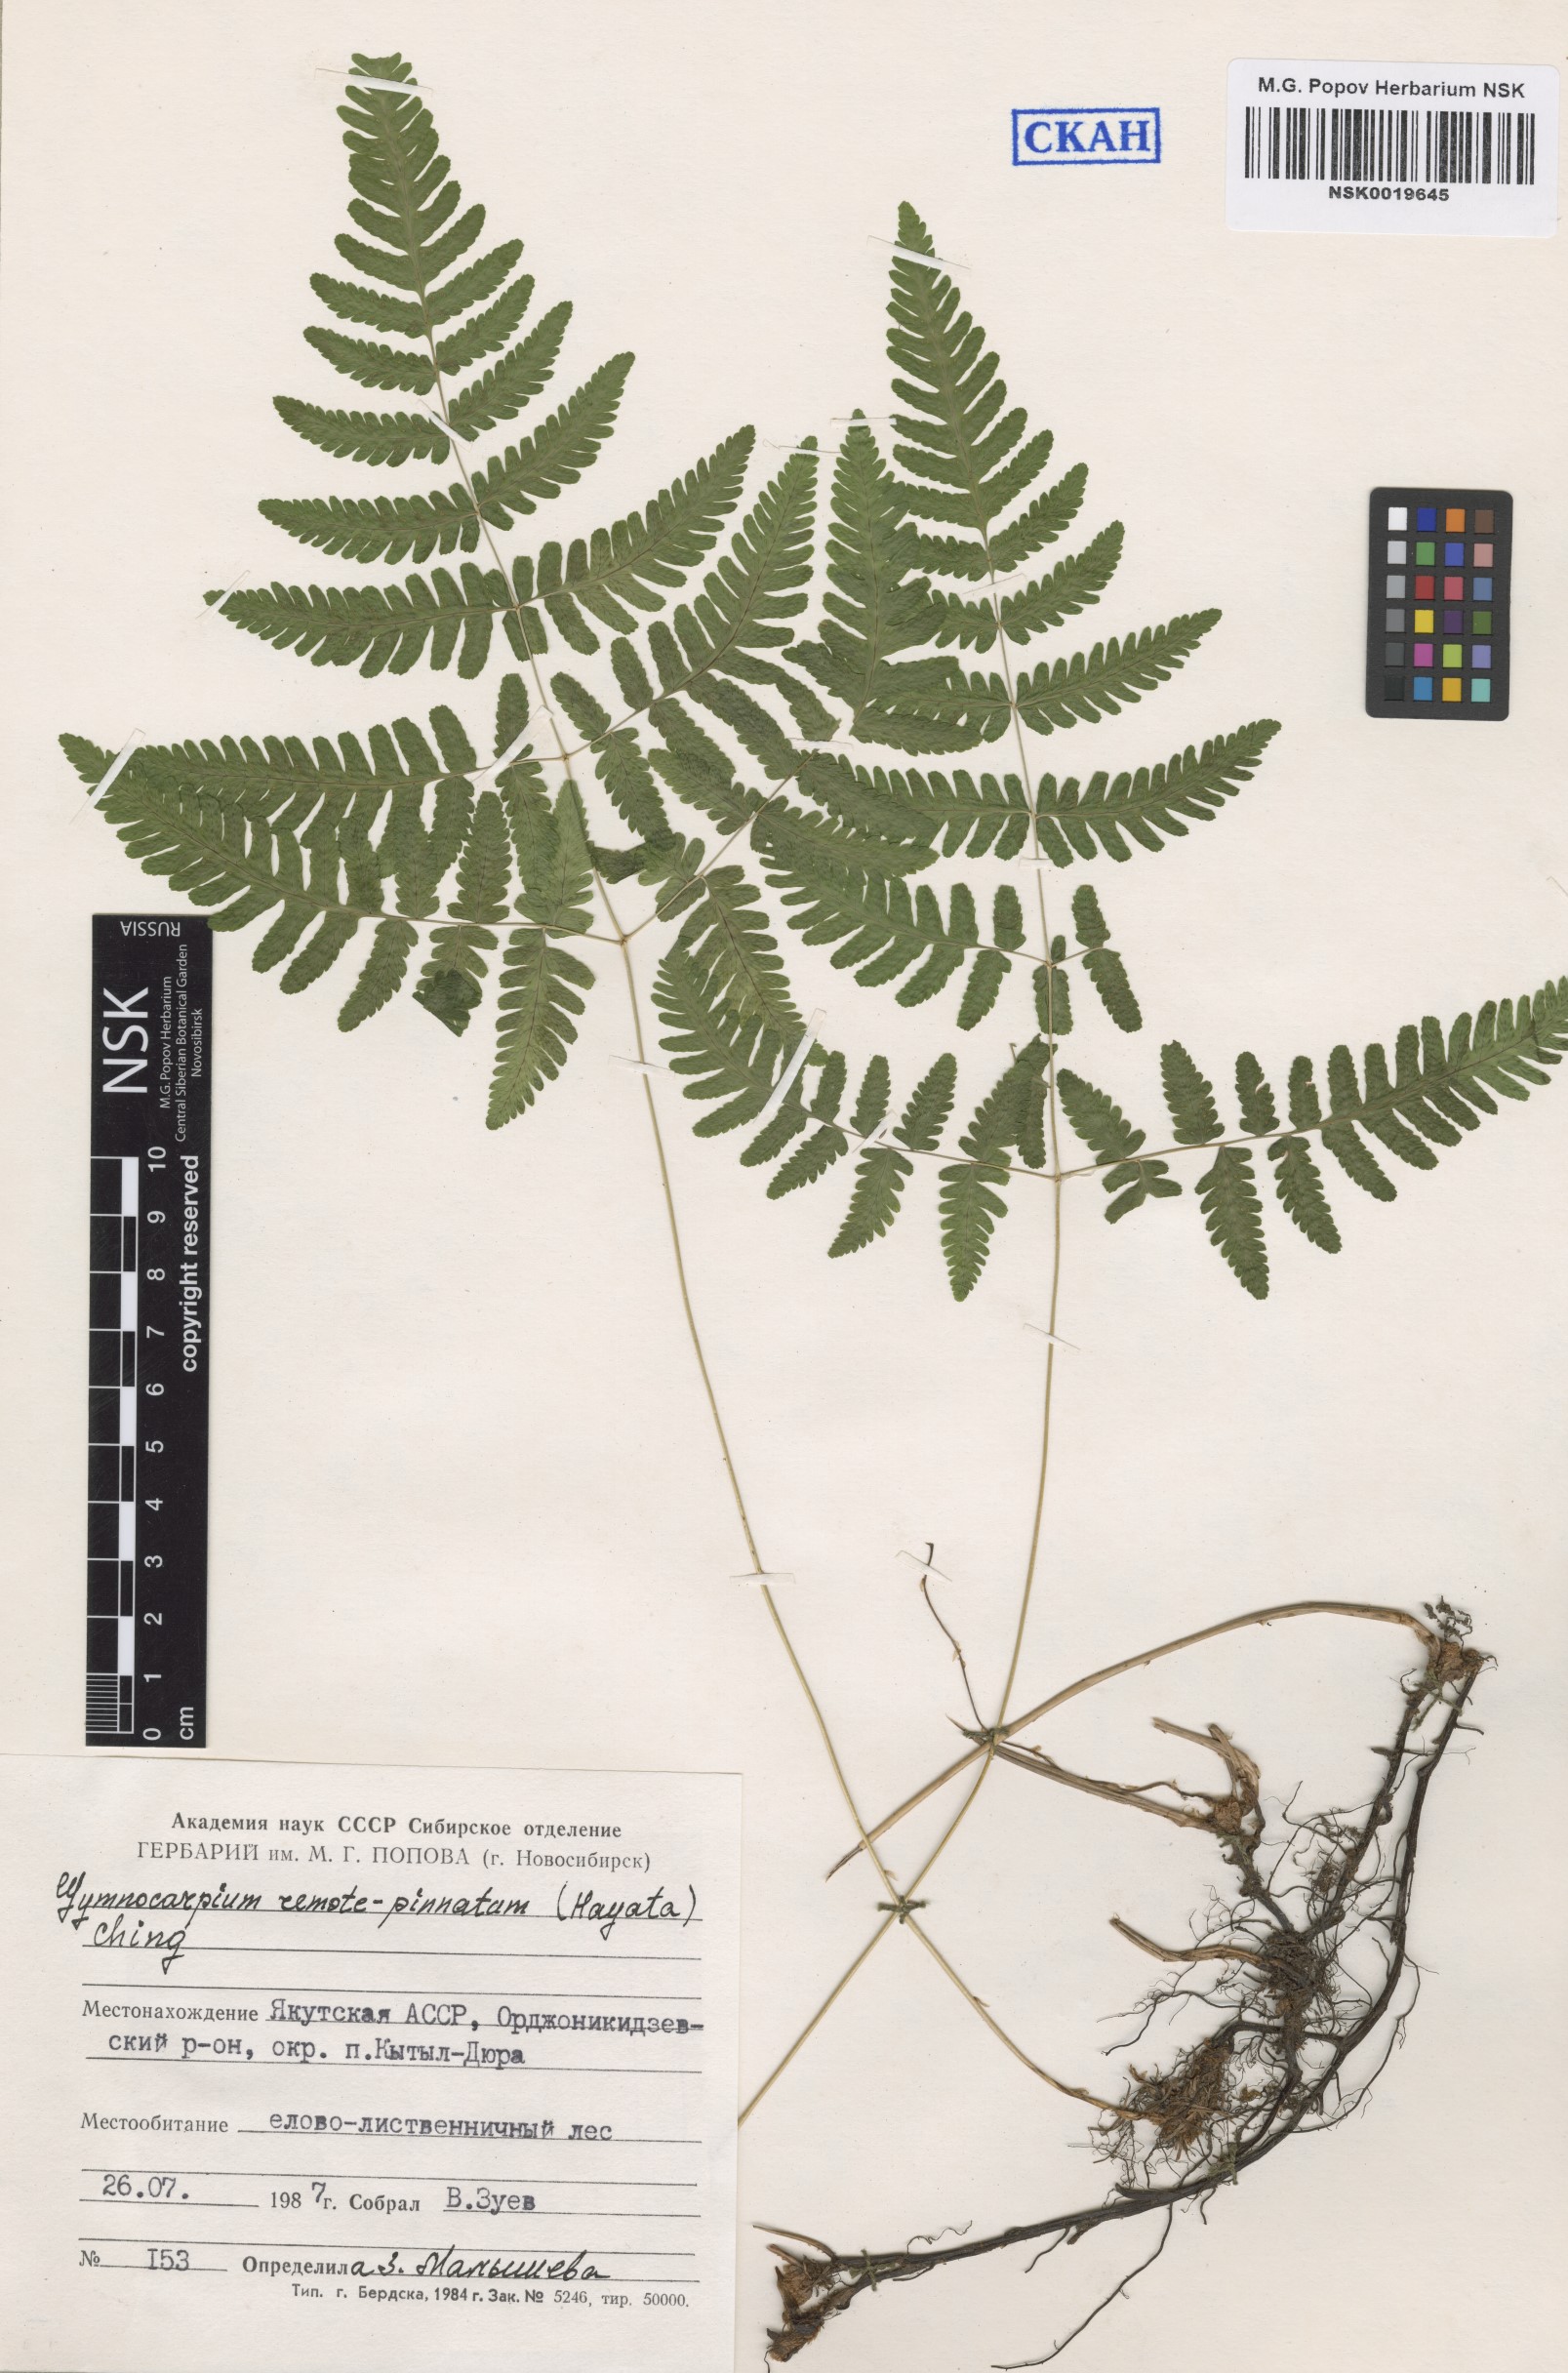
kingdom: Plantae
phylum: Tracheophyta
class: Polypodiopsida
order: Polypodiales
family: Cystopteridaceae
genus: Gymnocarpium
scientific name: Gymnocarpium continentale
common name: Asian oak fern
